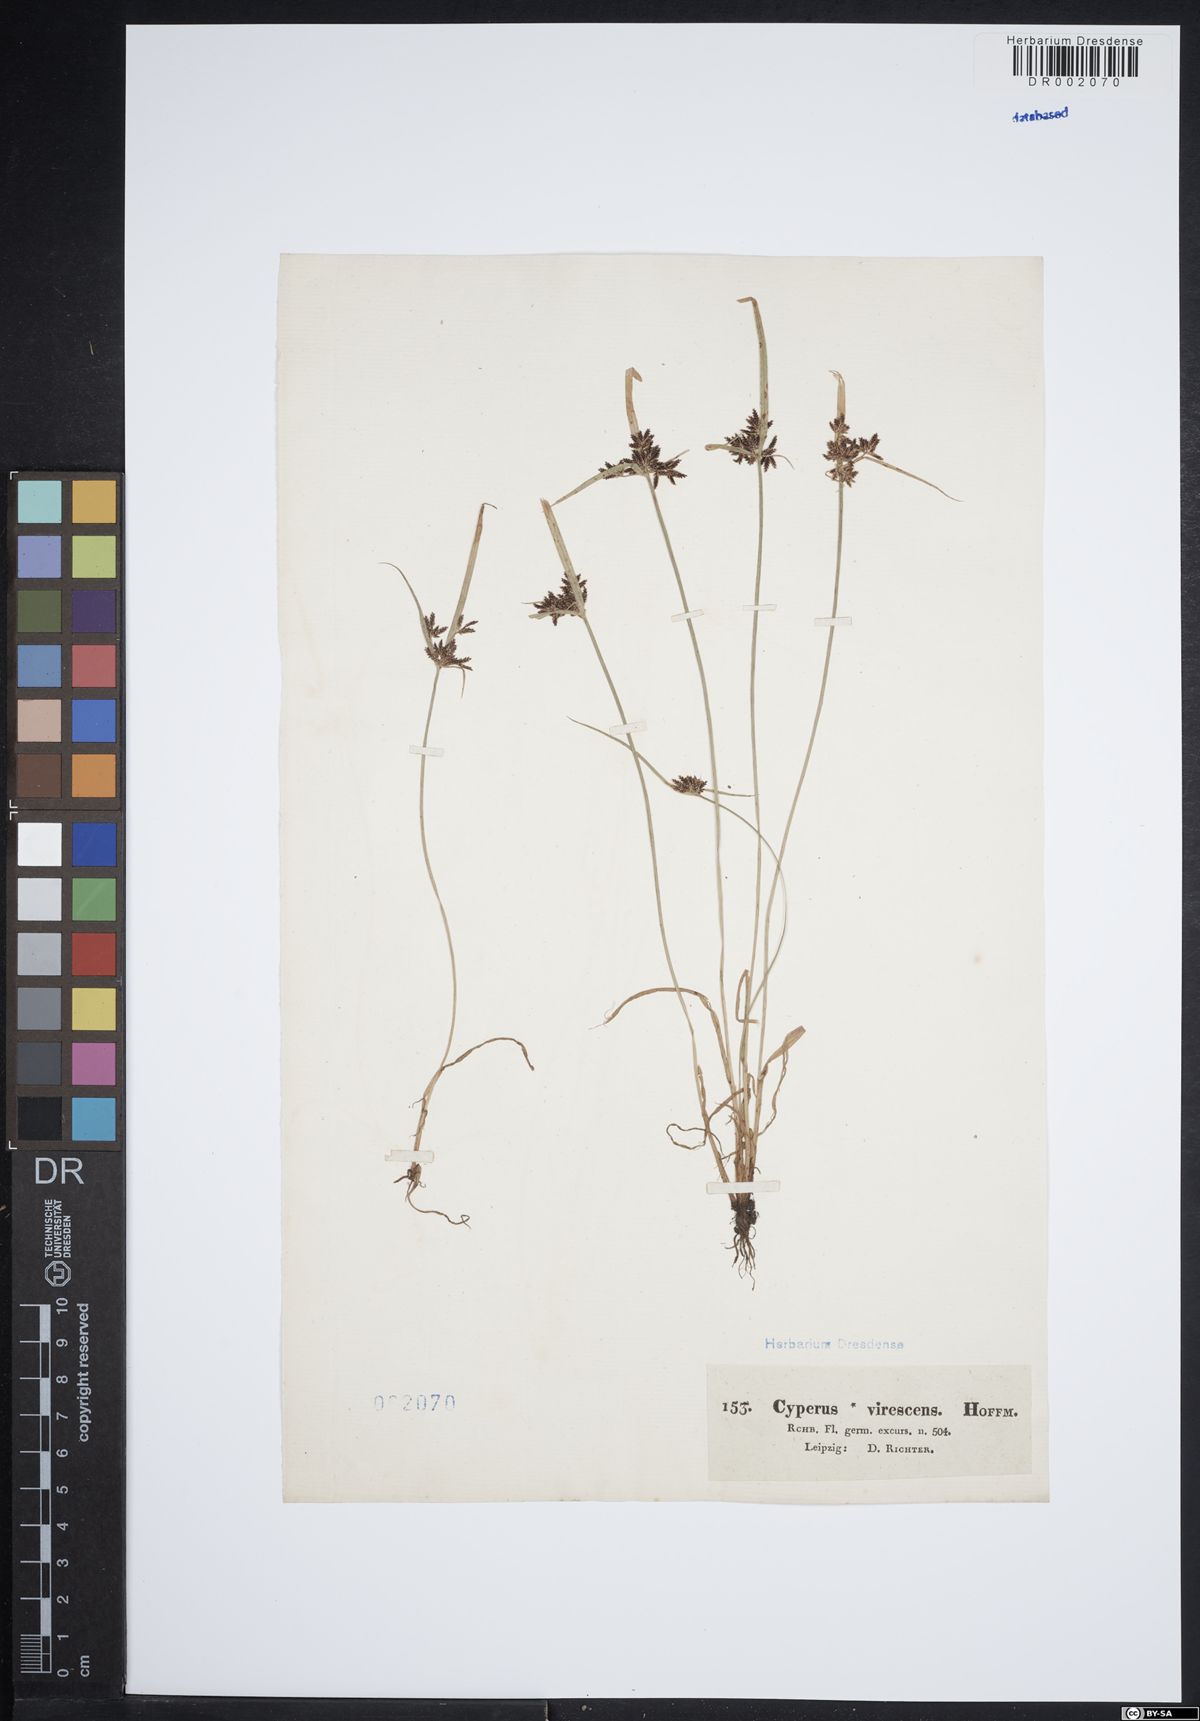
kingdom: Plantae
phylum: Tracheophyta
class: Liliopsida
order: Poales
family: Cyperaceae
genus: Cyperus
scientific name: Cyperus fuscus
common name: Brown galingale
